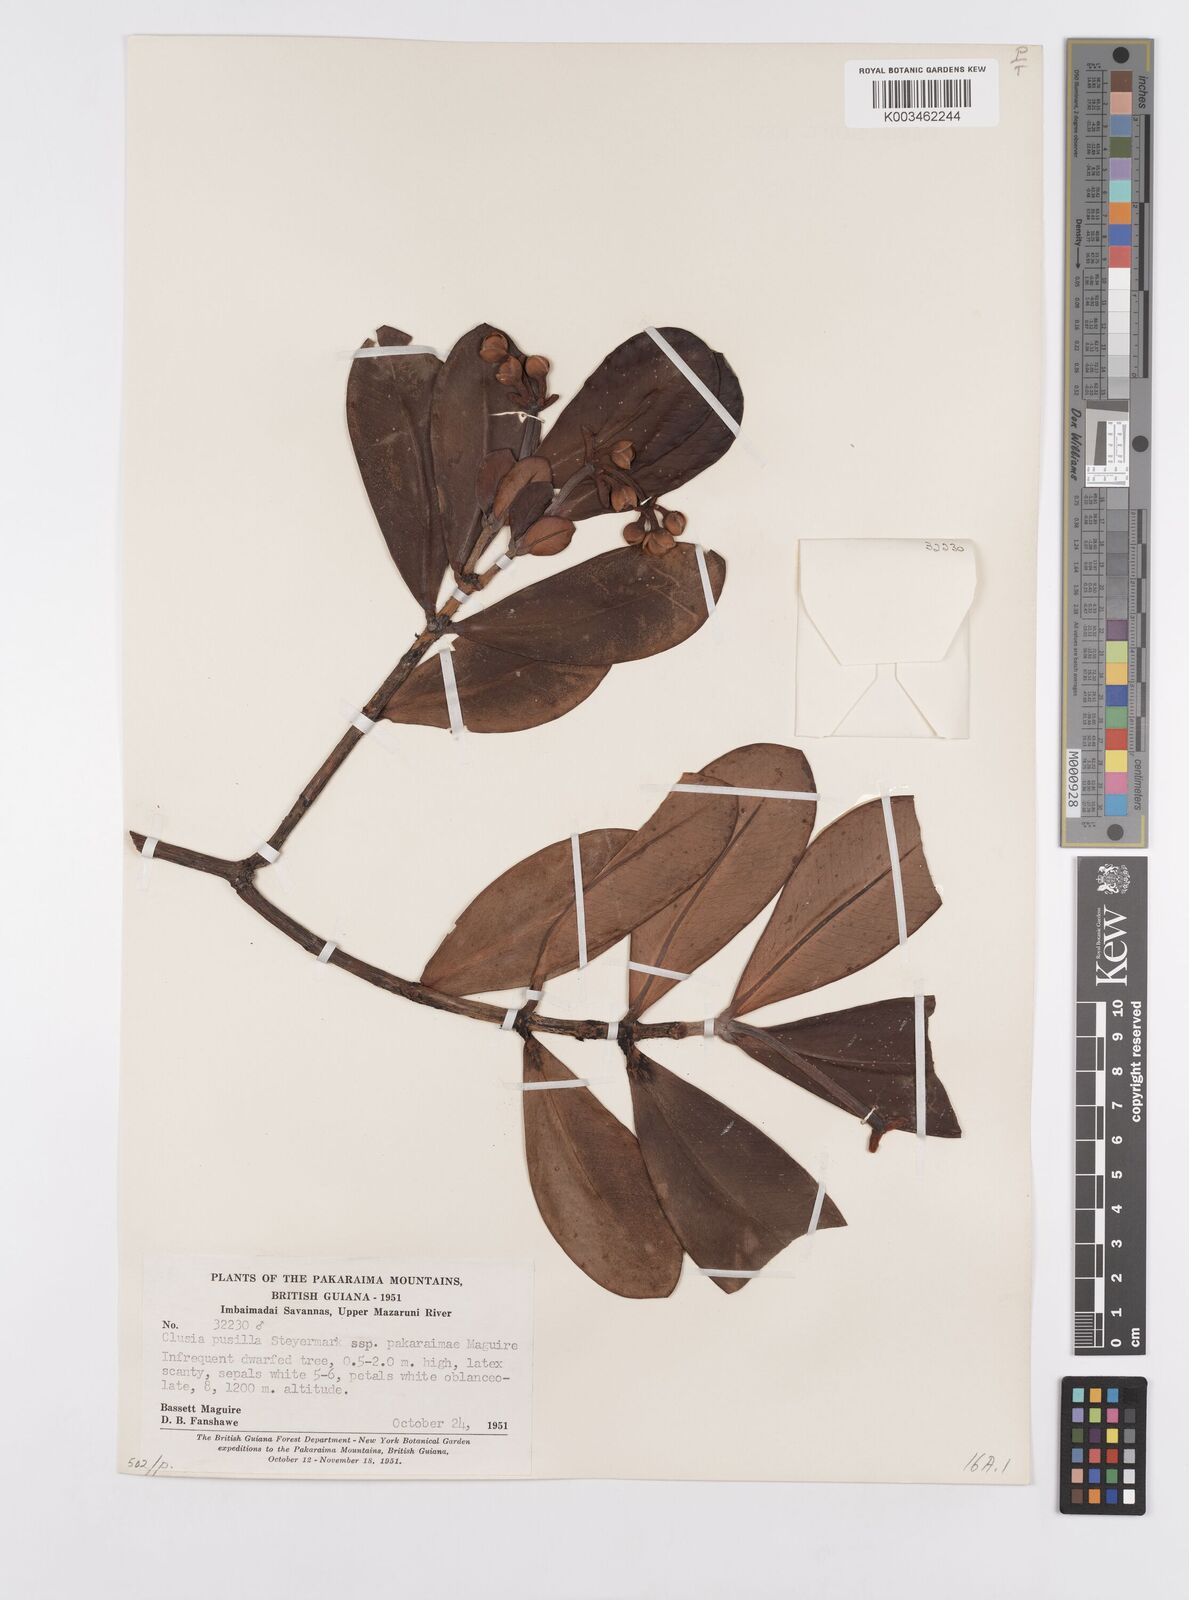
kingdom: Plantae
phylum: Tracheophyta
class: Magnoliopsida
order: Malpighiales
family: Clusiaceae
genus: Clusia
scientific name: Clusia pusilla
